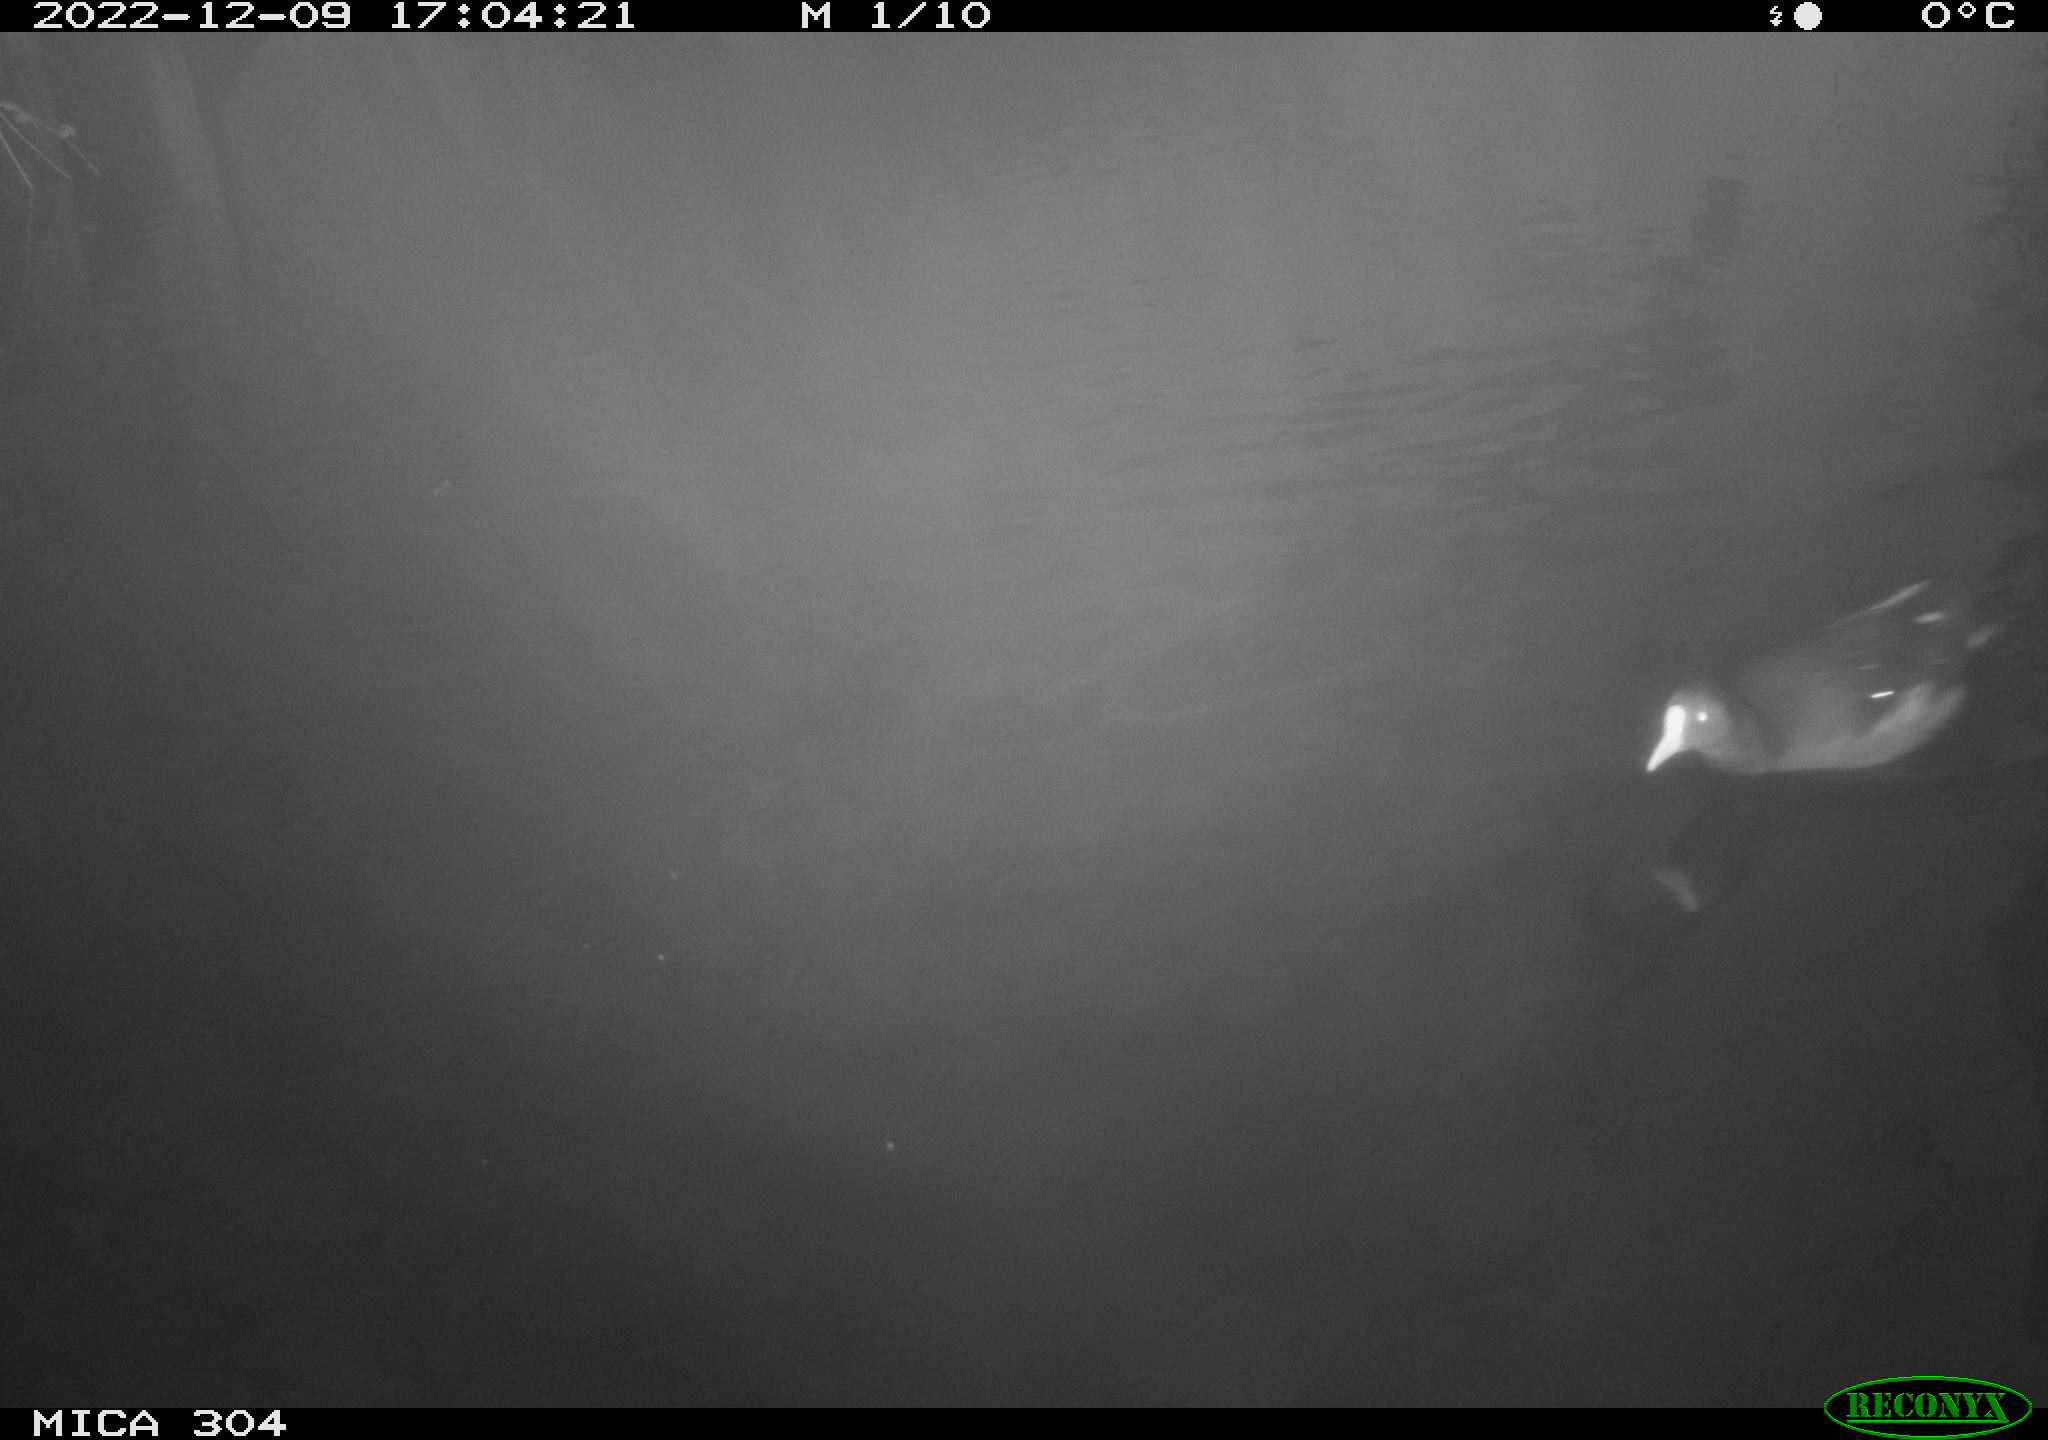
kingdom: Animalia
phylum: Chordata
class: Aves
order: Gruiformes
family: Rallidae
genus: Gallinula
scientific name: Gallinula chloropus
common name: Common moorhen
